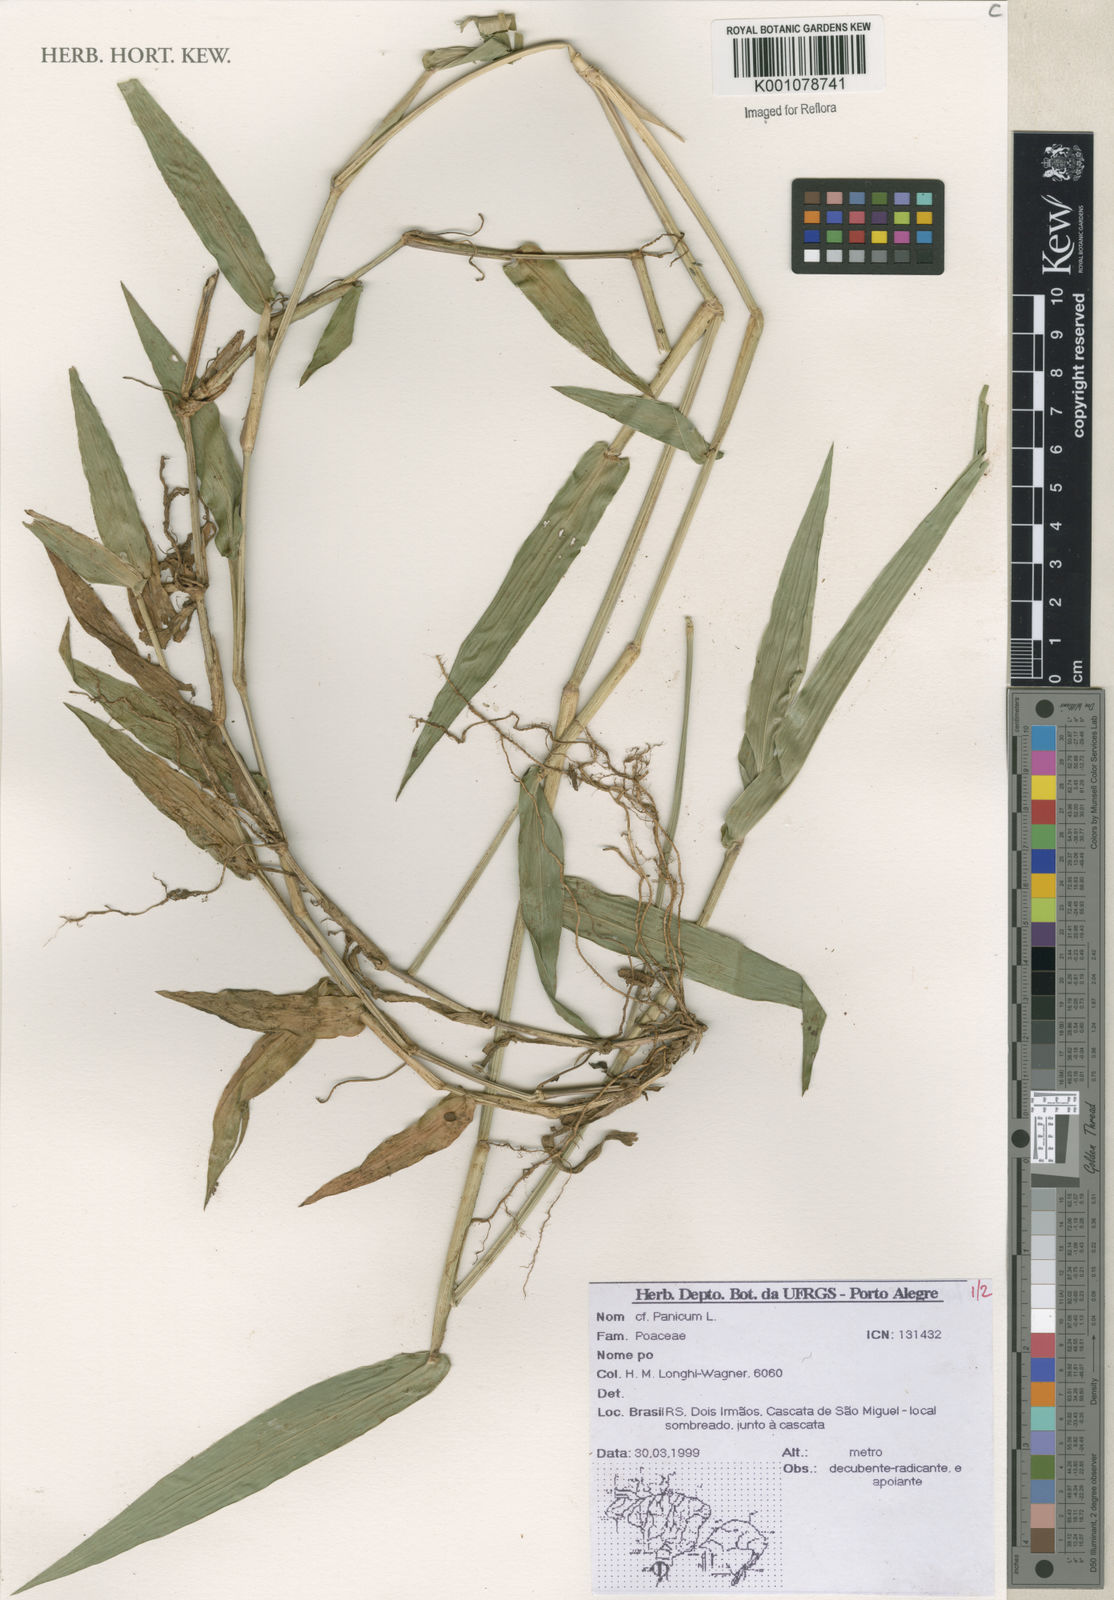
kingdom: Plantae
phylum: Tracheophyta
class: Liliopsida
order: Poales
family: Poaceae
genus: Panicum
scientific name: Panicum
